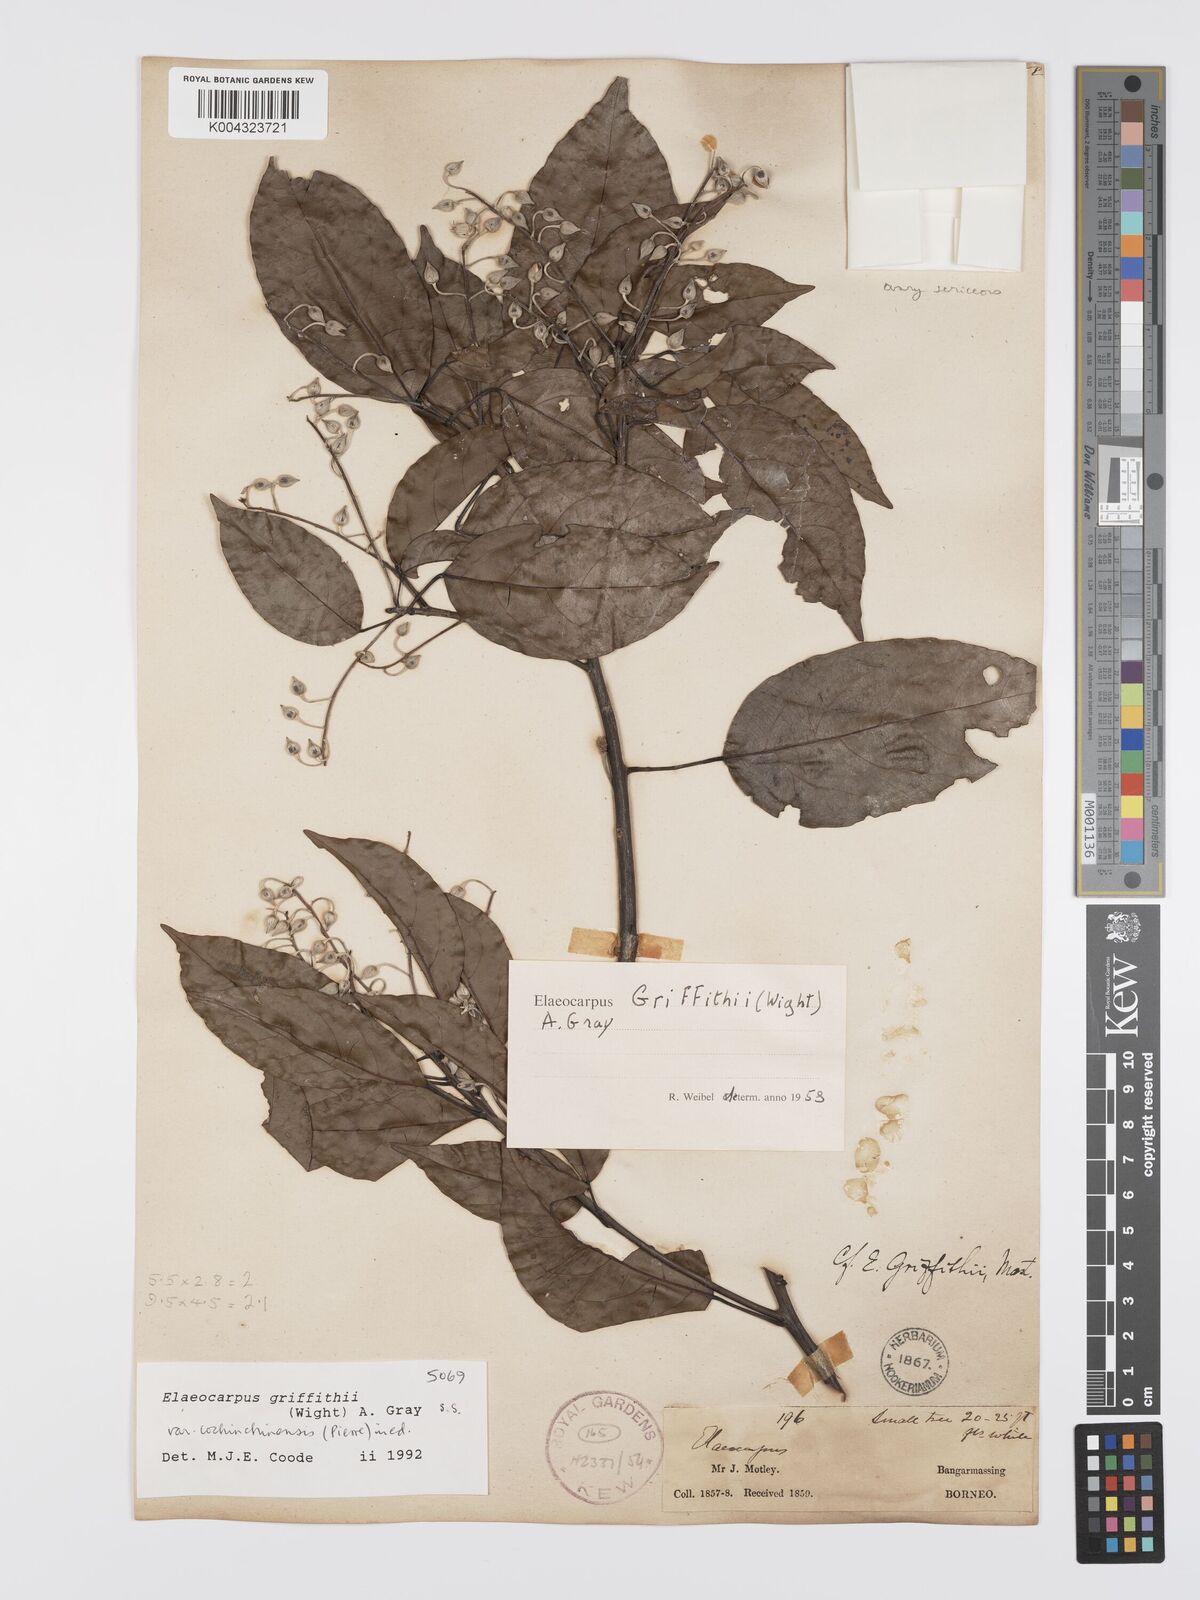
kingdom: Plantae
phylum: Tracheophyta
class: Magnoliopsida
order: Oxalidales
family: Elaeocarpaceae
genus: Elaeocarpus
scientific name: Elaeocarpus griffithii
